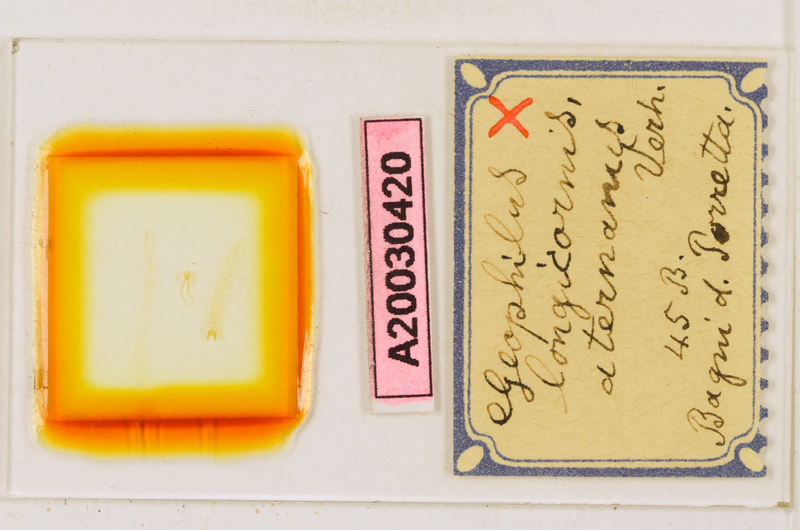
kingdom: Animalia
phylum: Arthropoda
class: Chilopoda
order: Geophilomorpha
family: Geophilidae
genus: Geophilus
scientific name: Geophilus bobolianus
